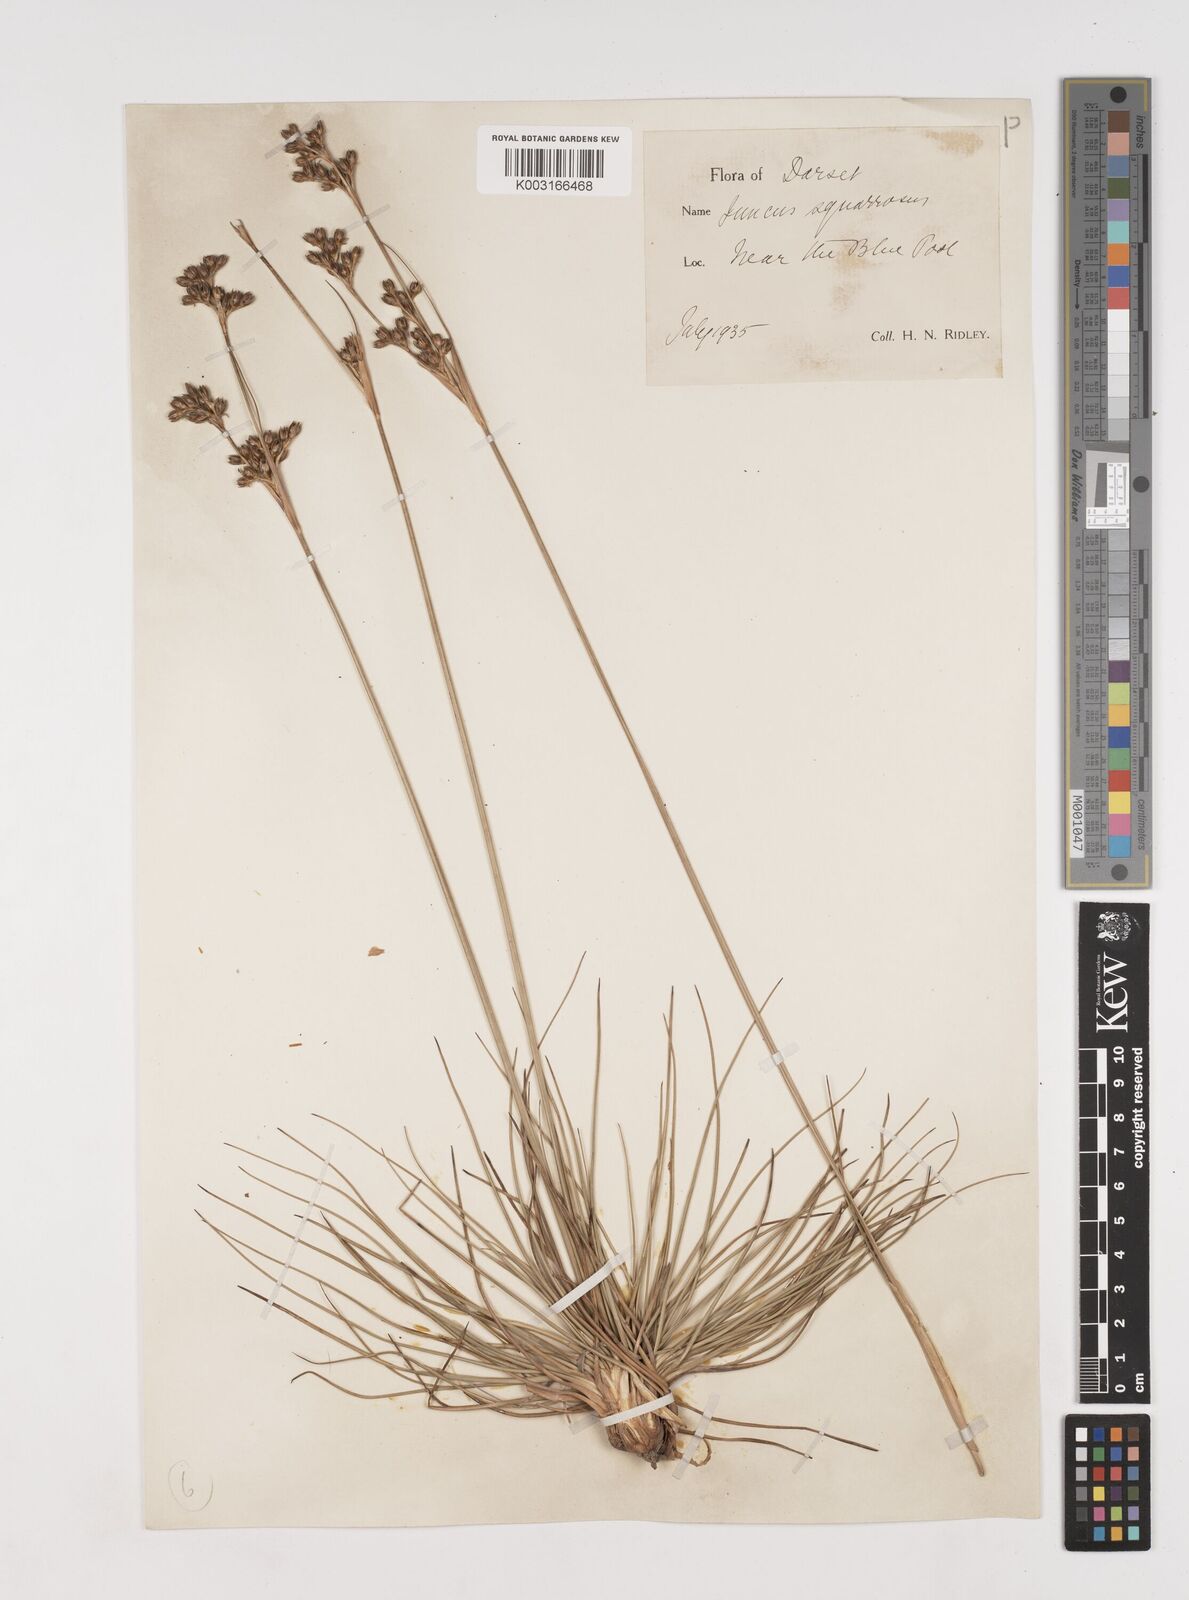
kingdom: Plantae
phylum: Tracheophyta
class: Liliopsida
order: Poales
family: Juncaceae
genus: Juncus
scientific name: Juncus squarrosus
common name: Heath rush
